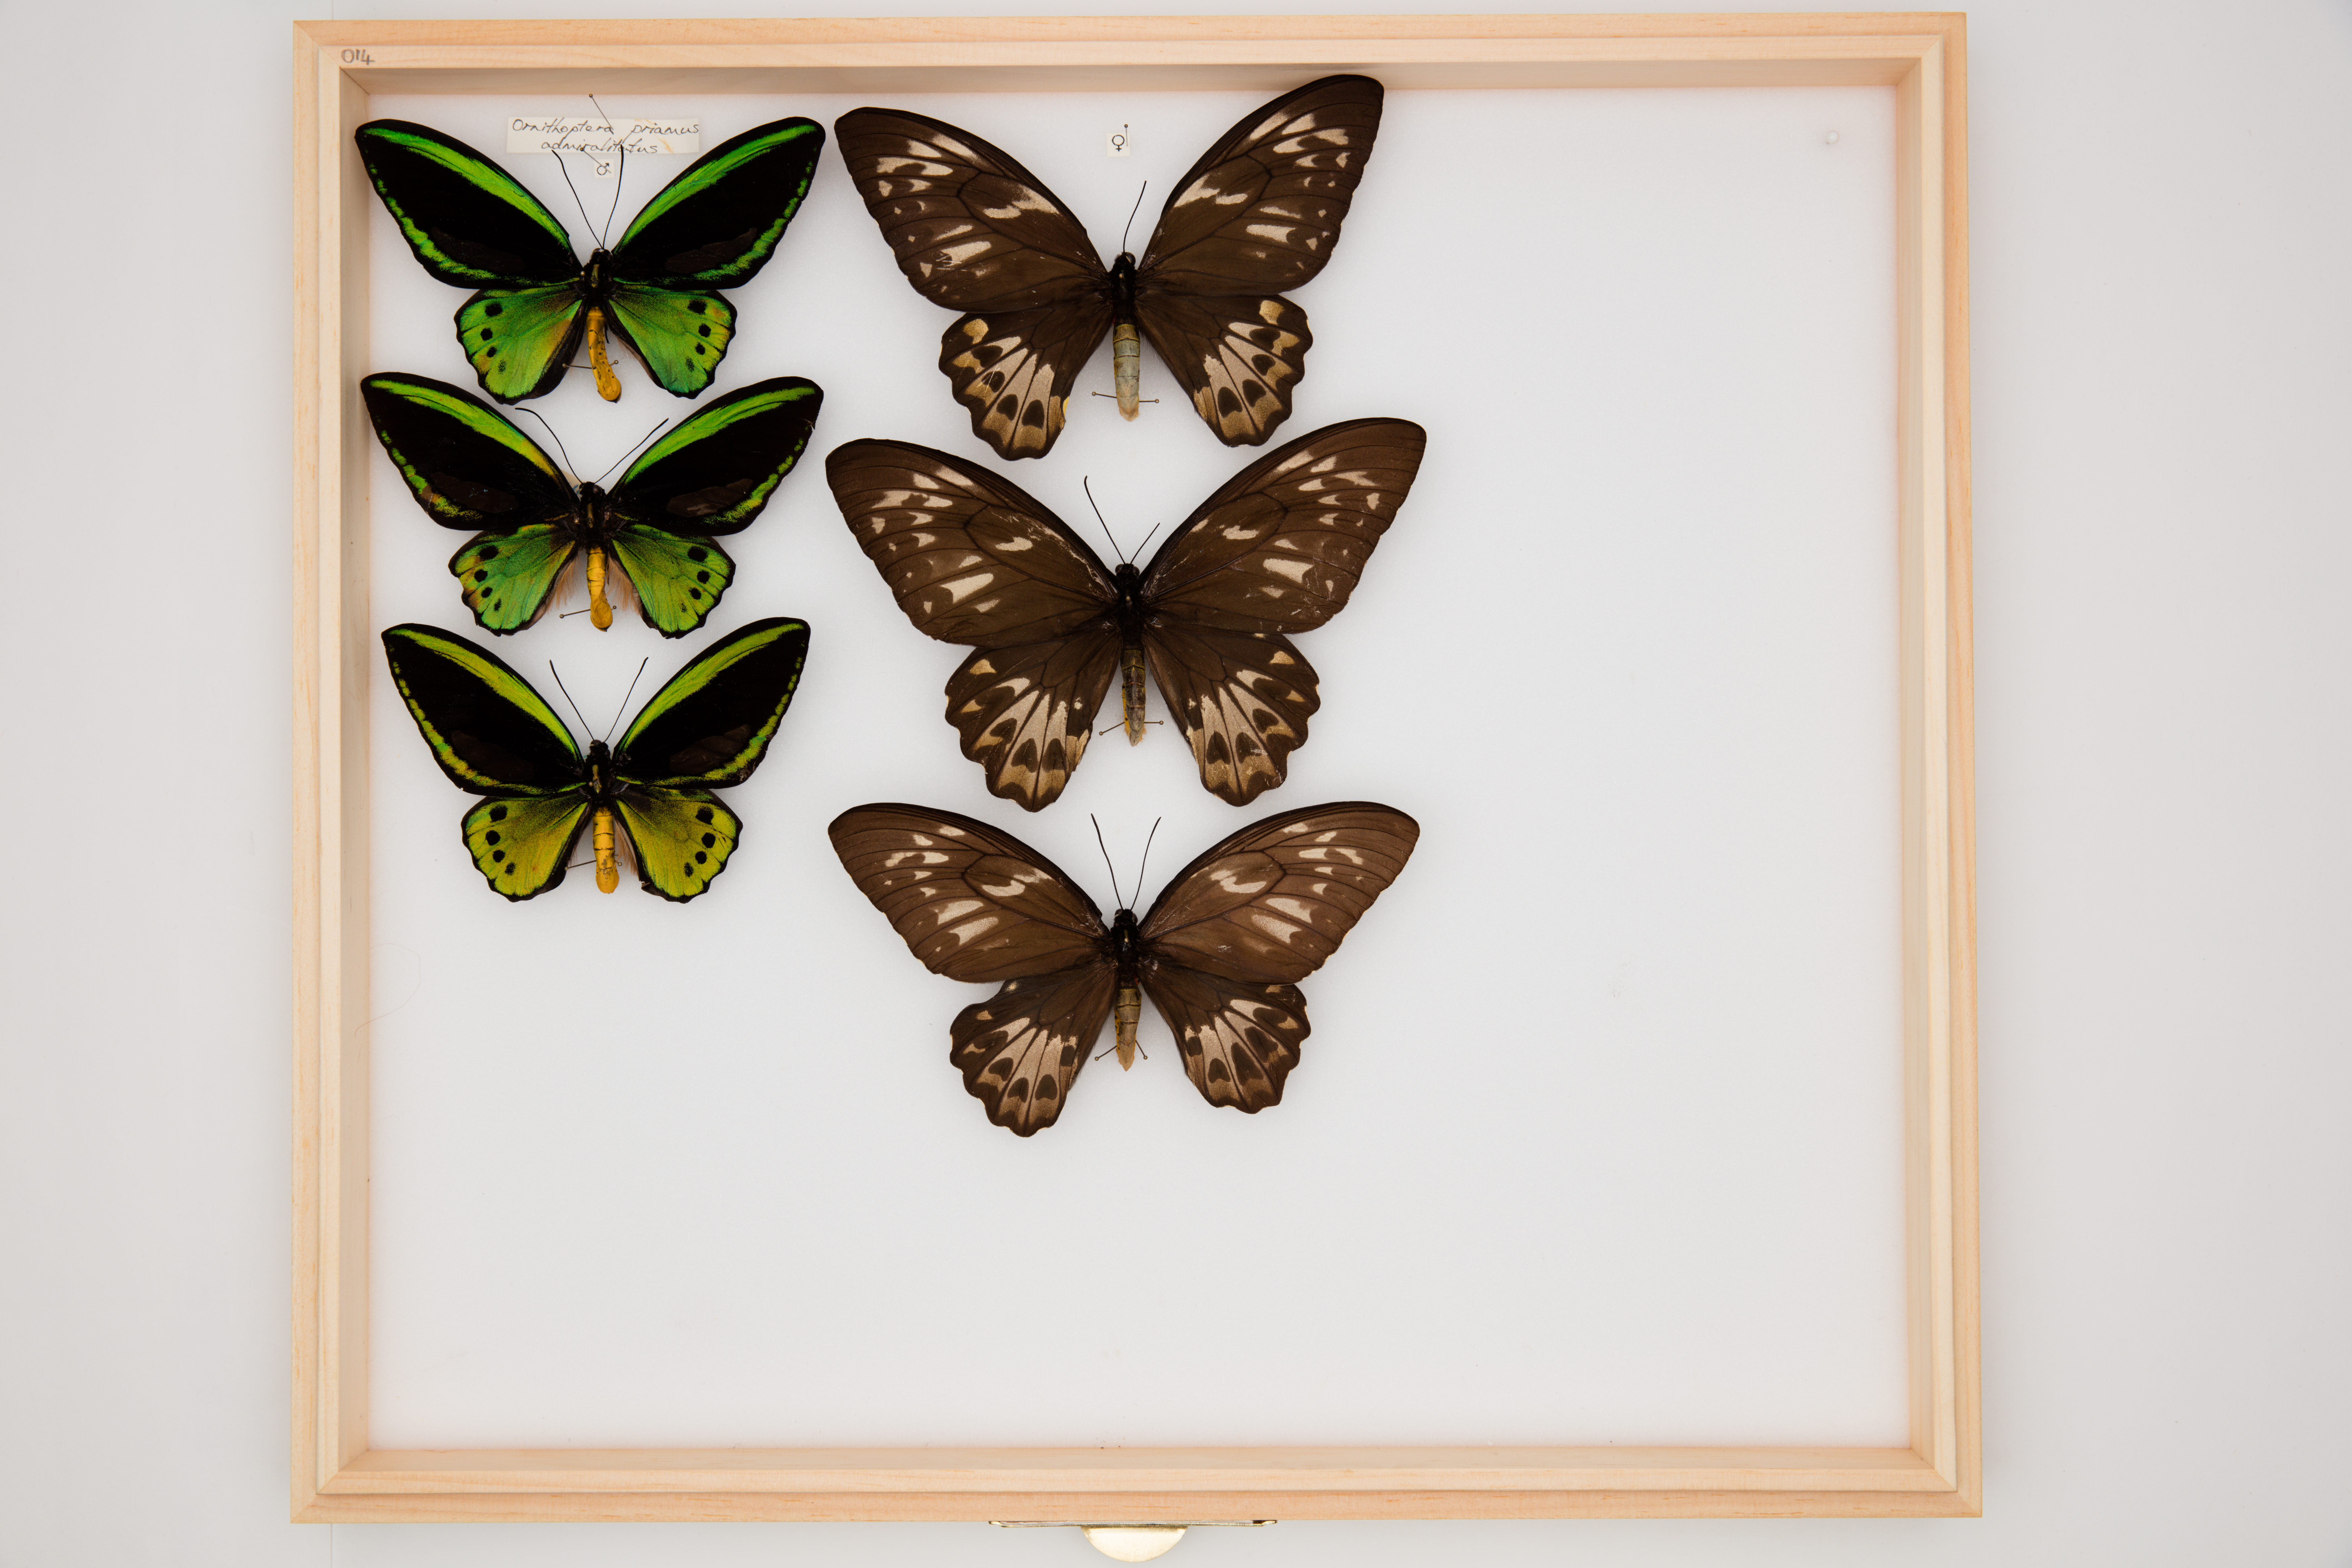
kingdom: Animalia
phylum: Arthropoda
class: Insecta
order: Lepidoptera
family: Papilionidae
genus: Ornithoptera
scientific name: Ornithoptera priamus
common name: Cape york birdwing
